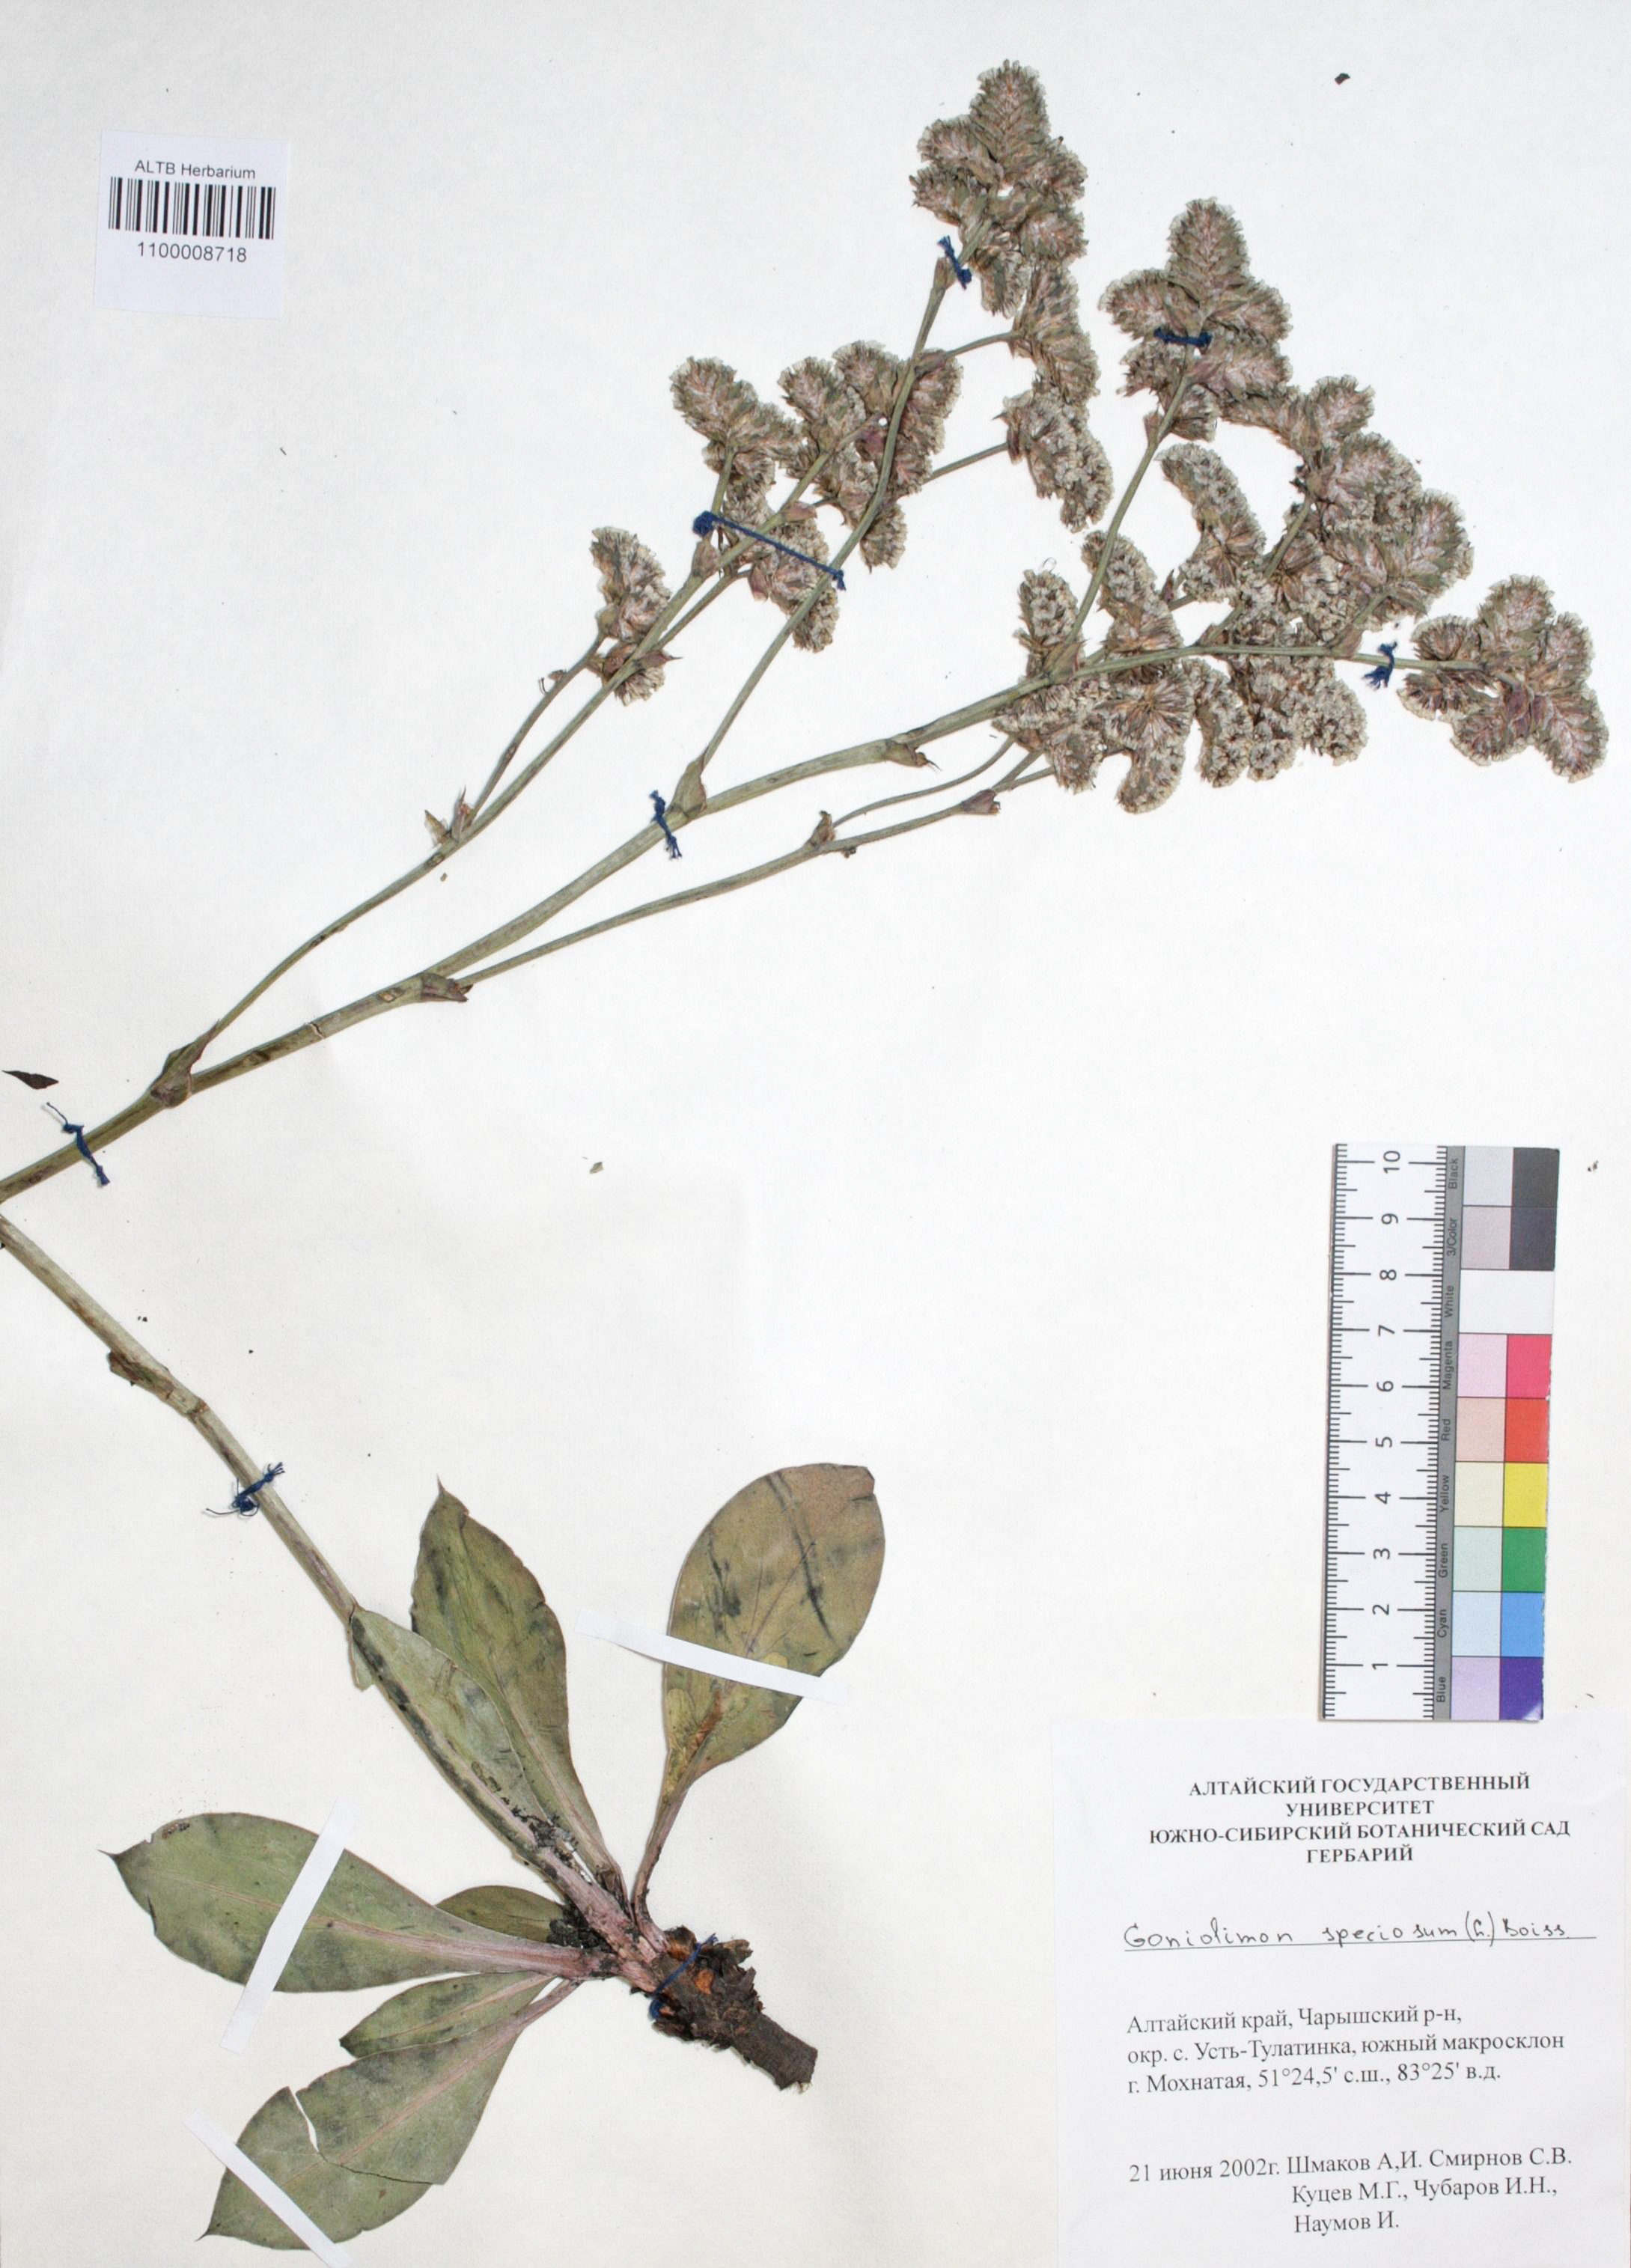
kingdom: Plantae
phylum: Tracheophyta
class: Magnoliopsida
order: Caryophyllales
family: Plumbaginaceae
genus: Goniolimon
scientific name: Goniolimon speciosum
